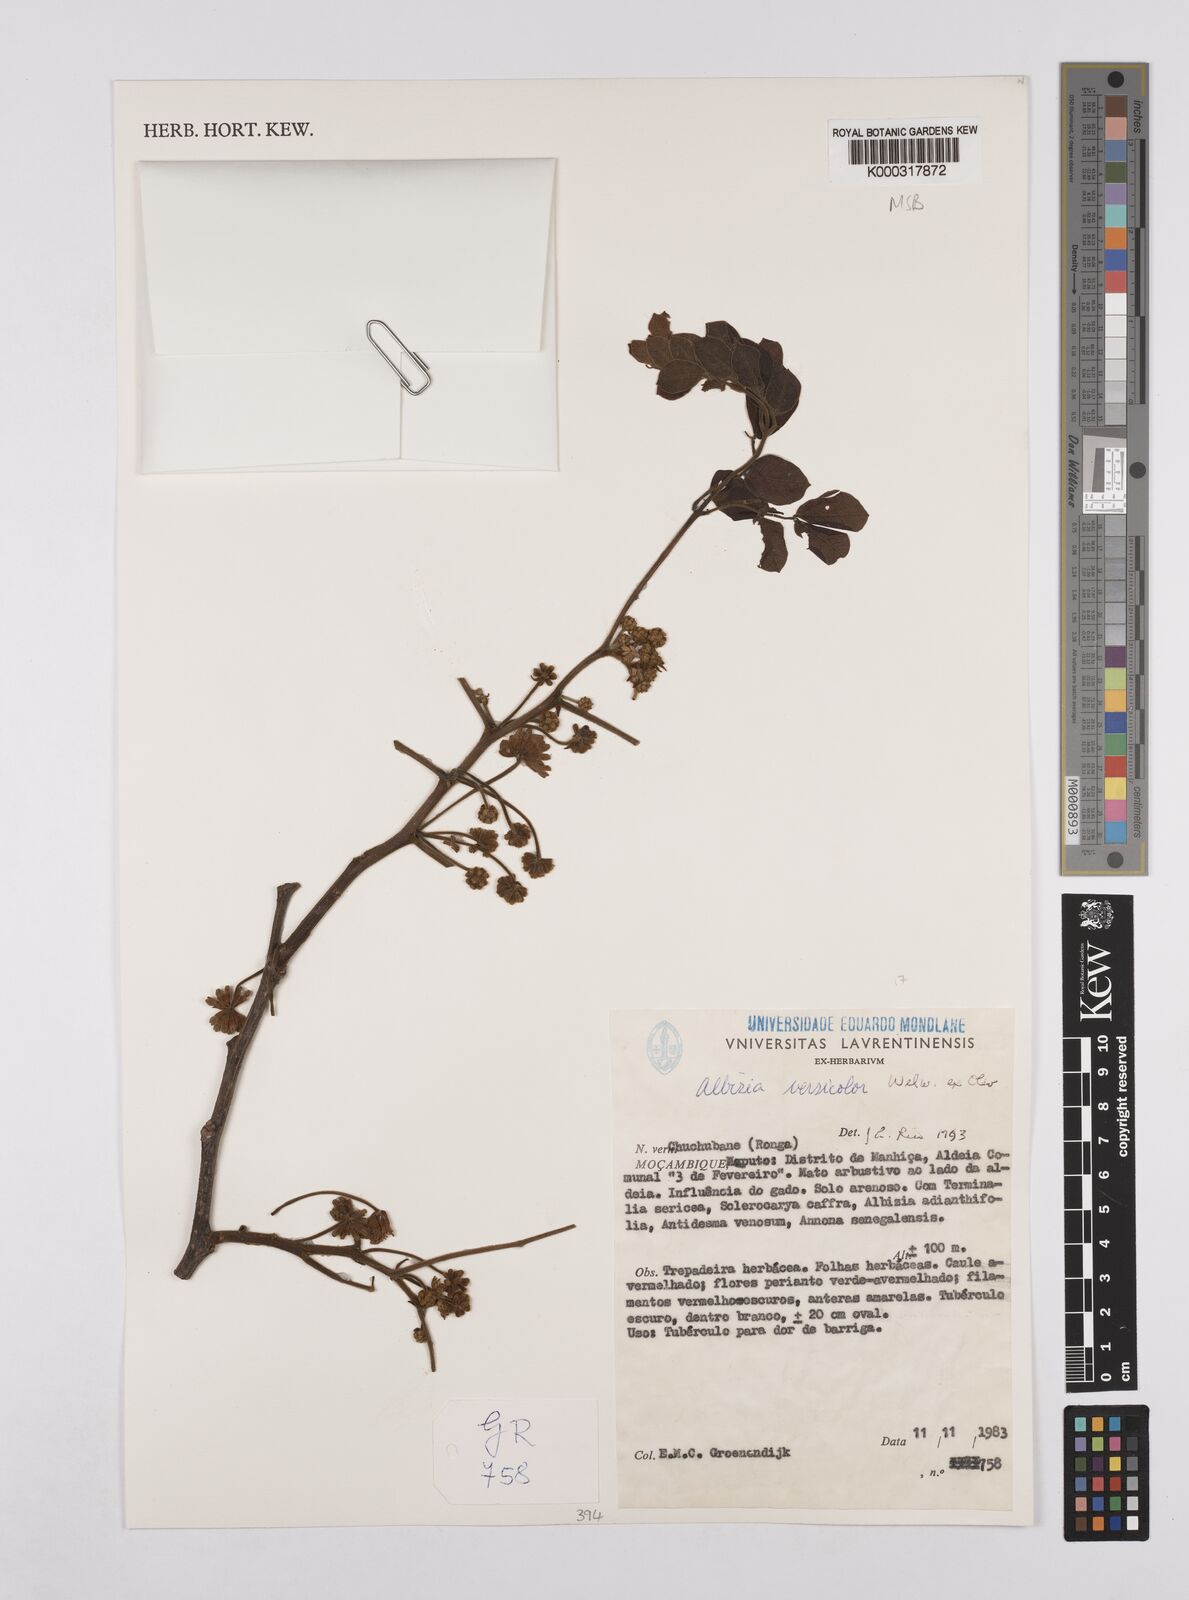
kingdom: Plantae
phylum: Tracheophyta
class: Magnoliopsida
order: Fabales
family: Fabaceae
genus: Albizia
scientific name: Albizia versicolor
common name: Poisonpod
